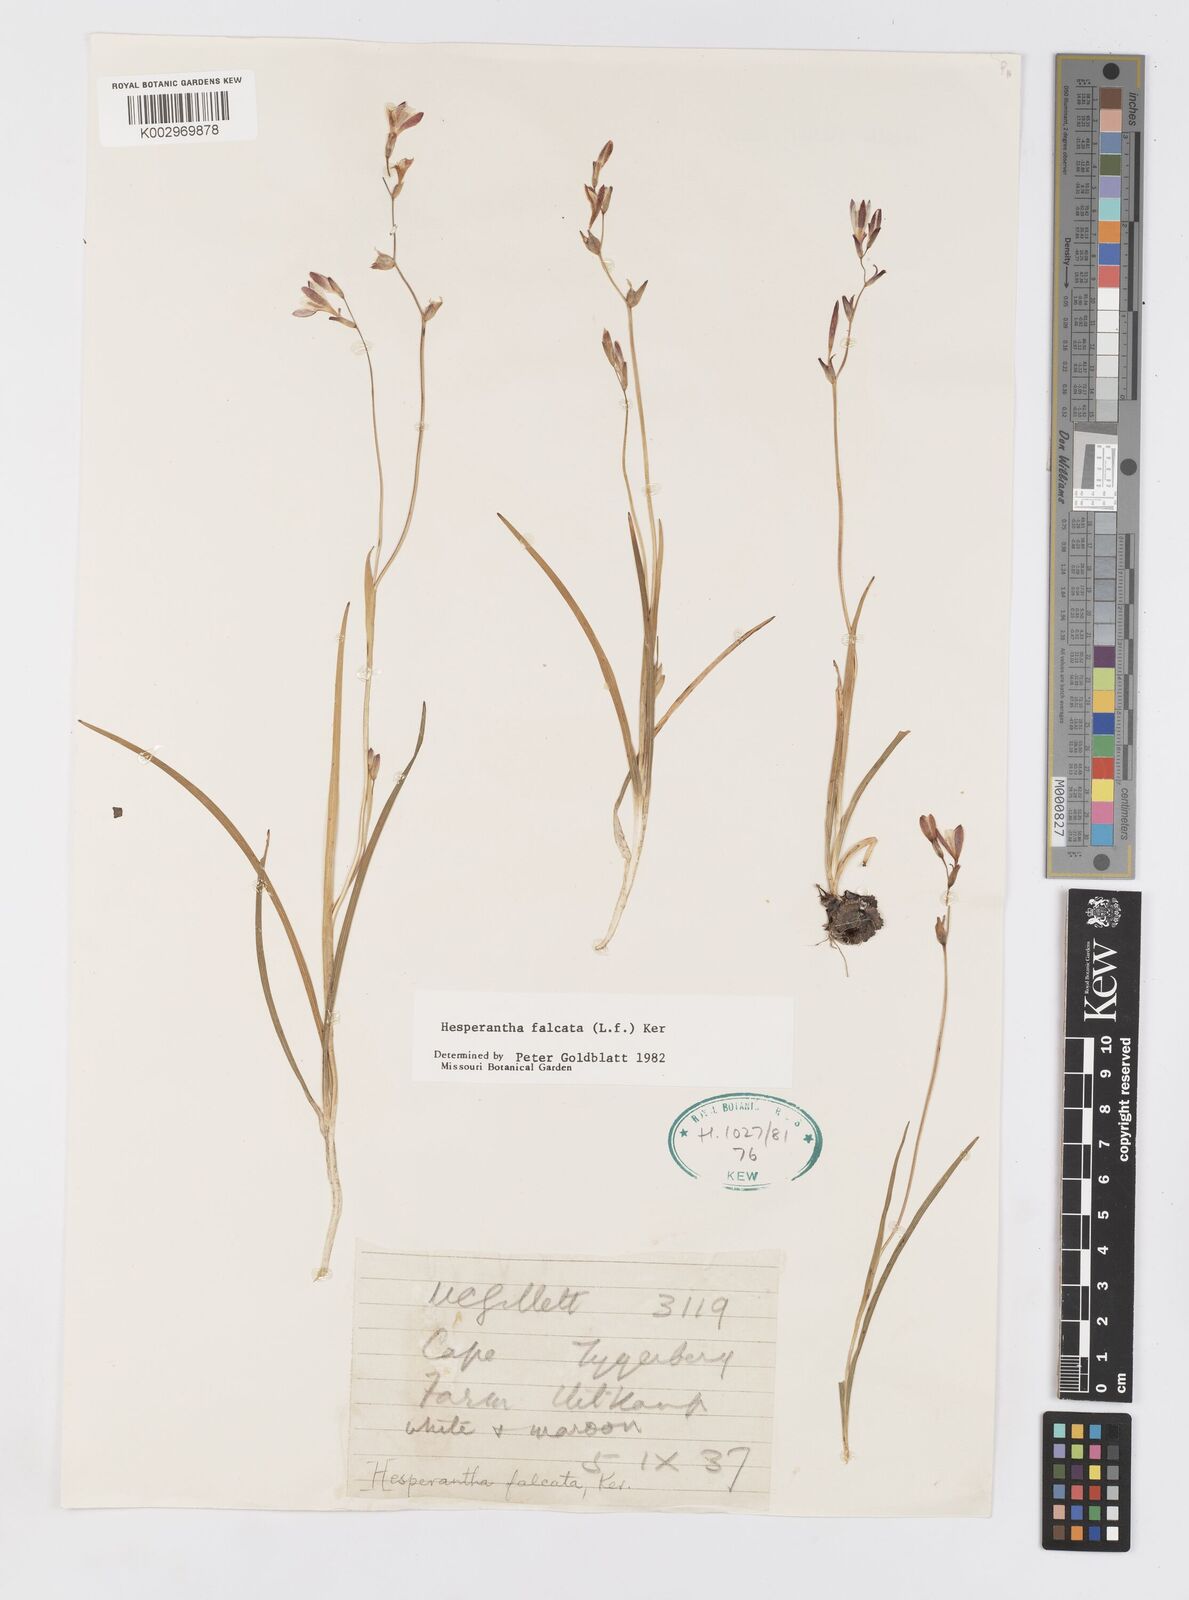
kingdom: Plantae
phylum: Tracheophyta
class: Liliopsida
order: Asparagales
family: Iridaceae
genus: Hesperantha
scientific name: Hesperantha falcata
